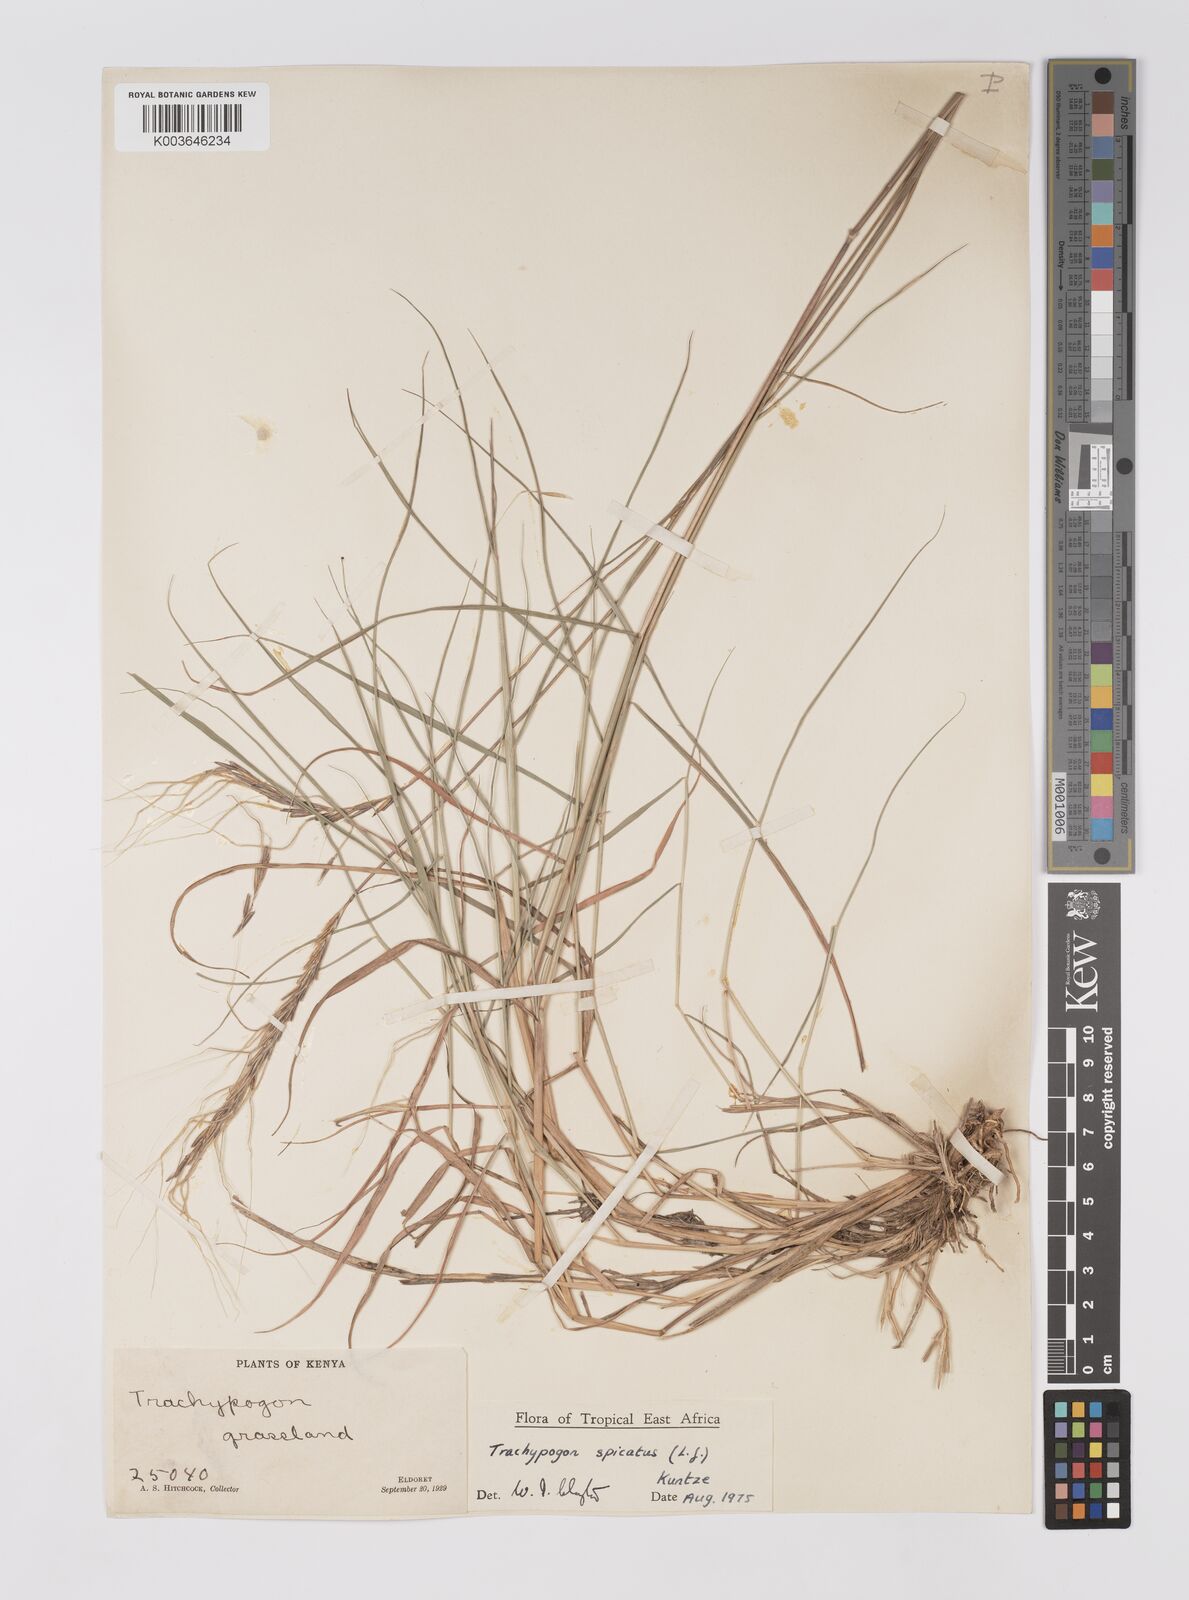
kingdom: Plantae
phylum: Tracheophyta
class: Liliopsida
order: Poales
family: Poaceae
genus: Trachypogon
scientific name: Trachypogon spicatus
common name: Crinkle-awn
